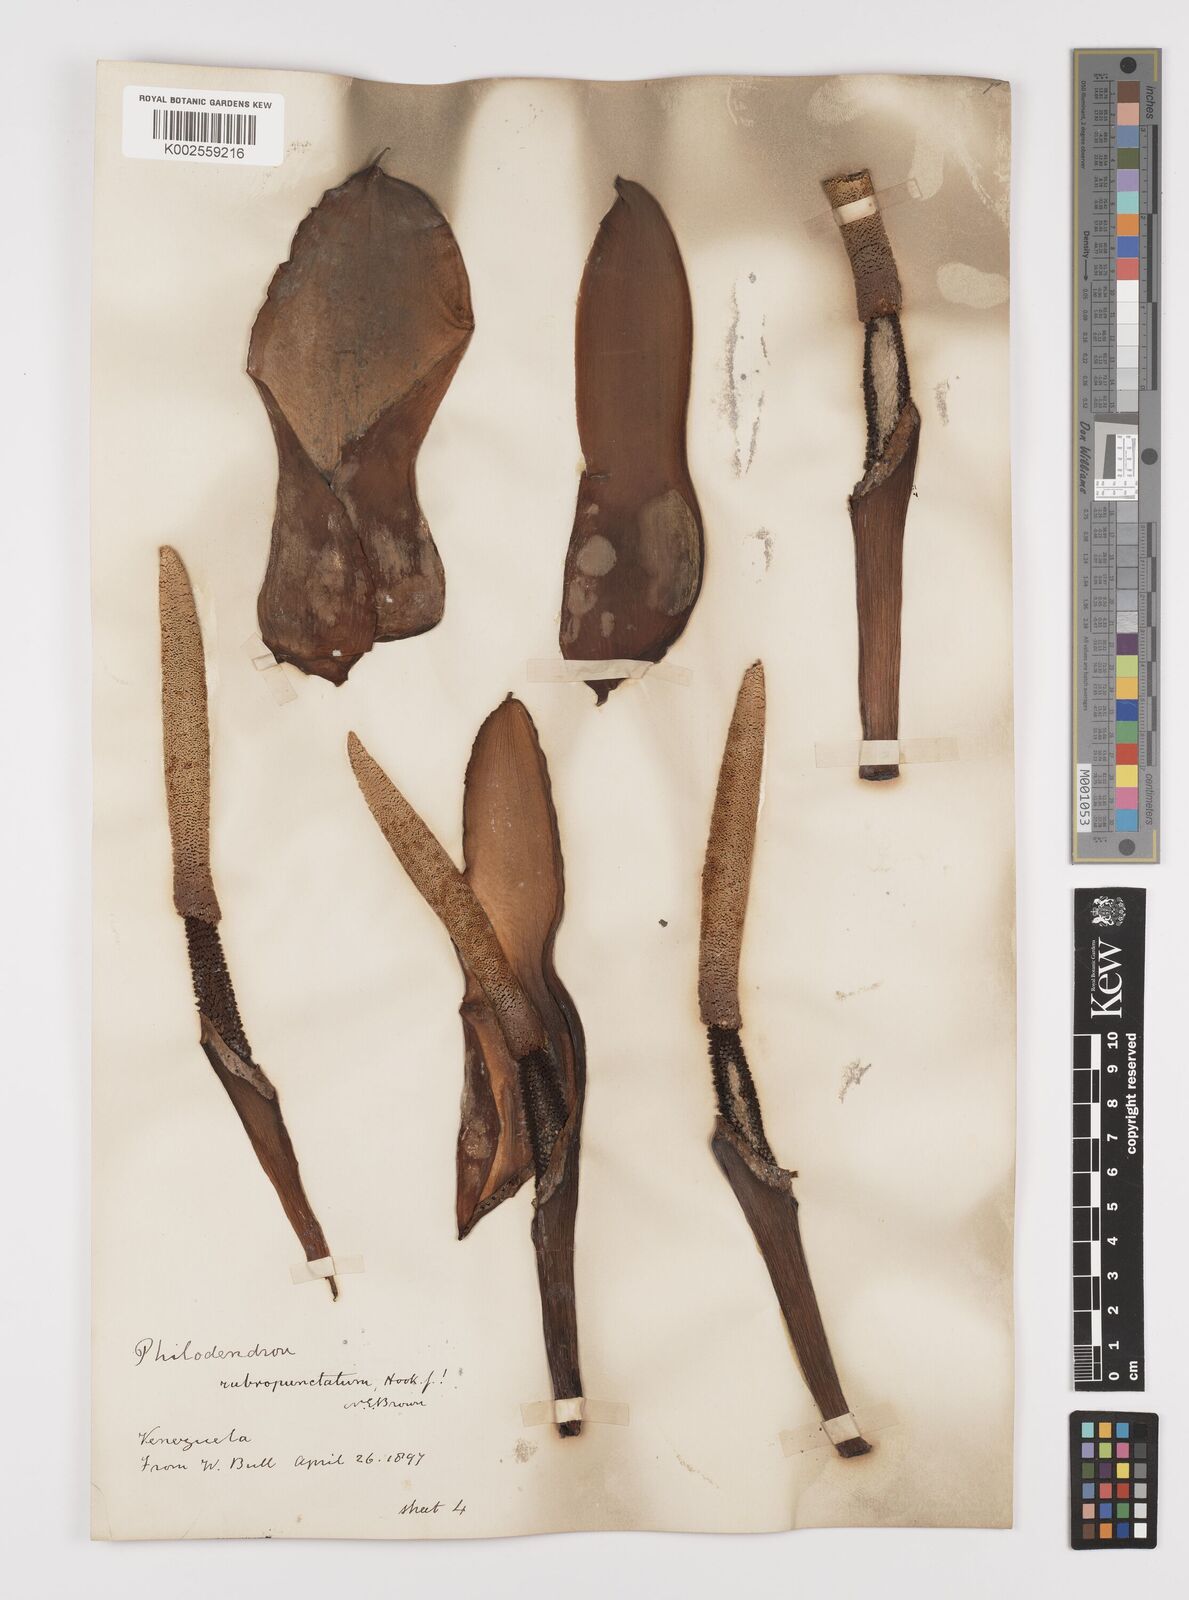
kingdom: Plantae
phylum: Tracheophyta
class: Liliopsida
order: Alismatales
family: Araceae
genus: Philodendron
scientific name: Philodendron pinnatifidum
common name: Comb-leaf philodendron
